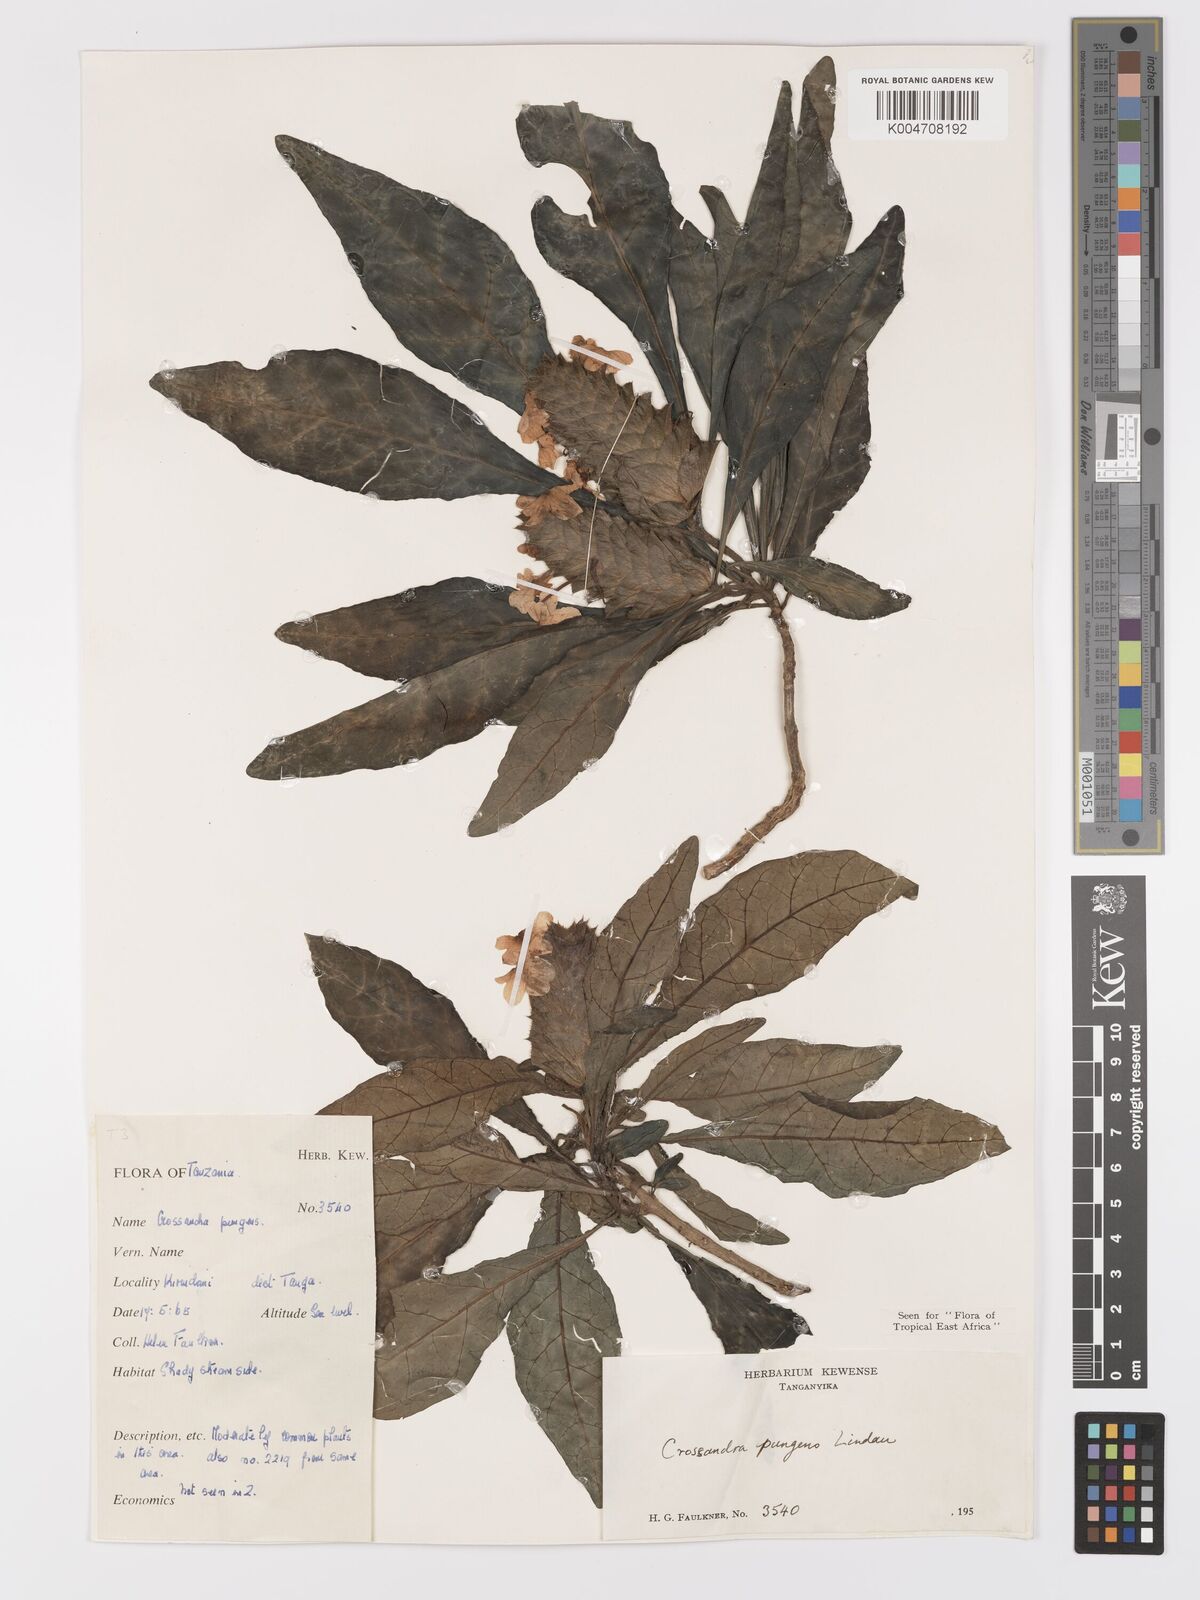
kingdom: Plantae
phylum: Tracheophyta
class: Magnoliopsida
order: Lamiales
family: Acanthaceae
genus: Crossandra
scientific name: Crossandra pungens
